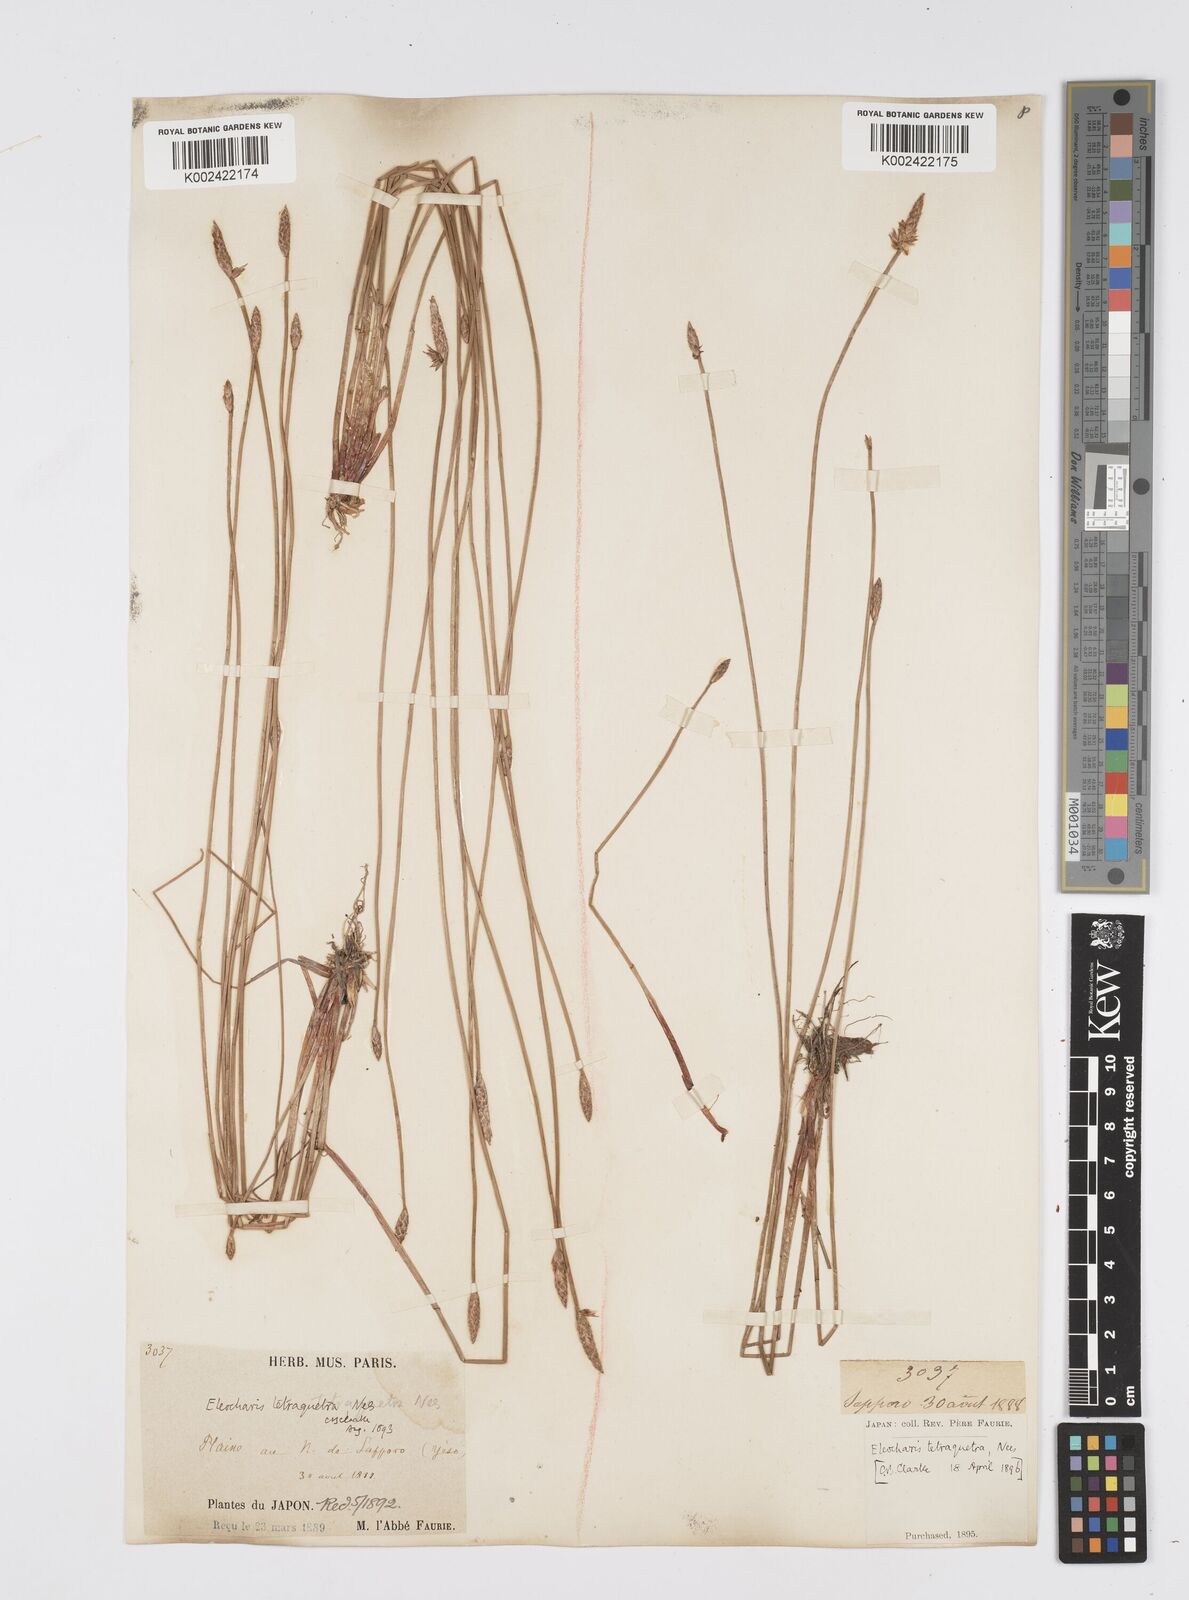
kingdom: Plantae
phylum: Tracheophyta
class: Liliopsida
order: Poales
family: Cyperaceae
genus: Eleocharis
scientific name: Eleocharis tetraquetra
